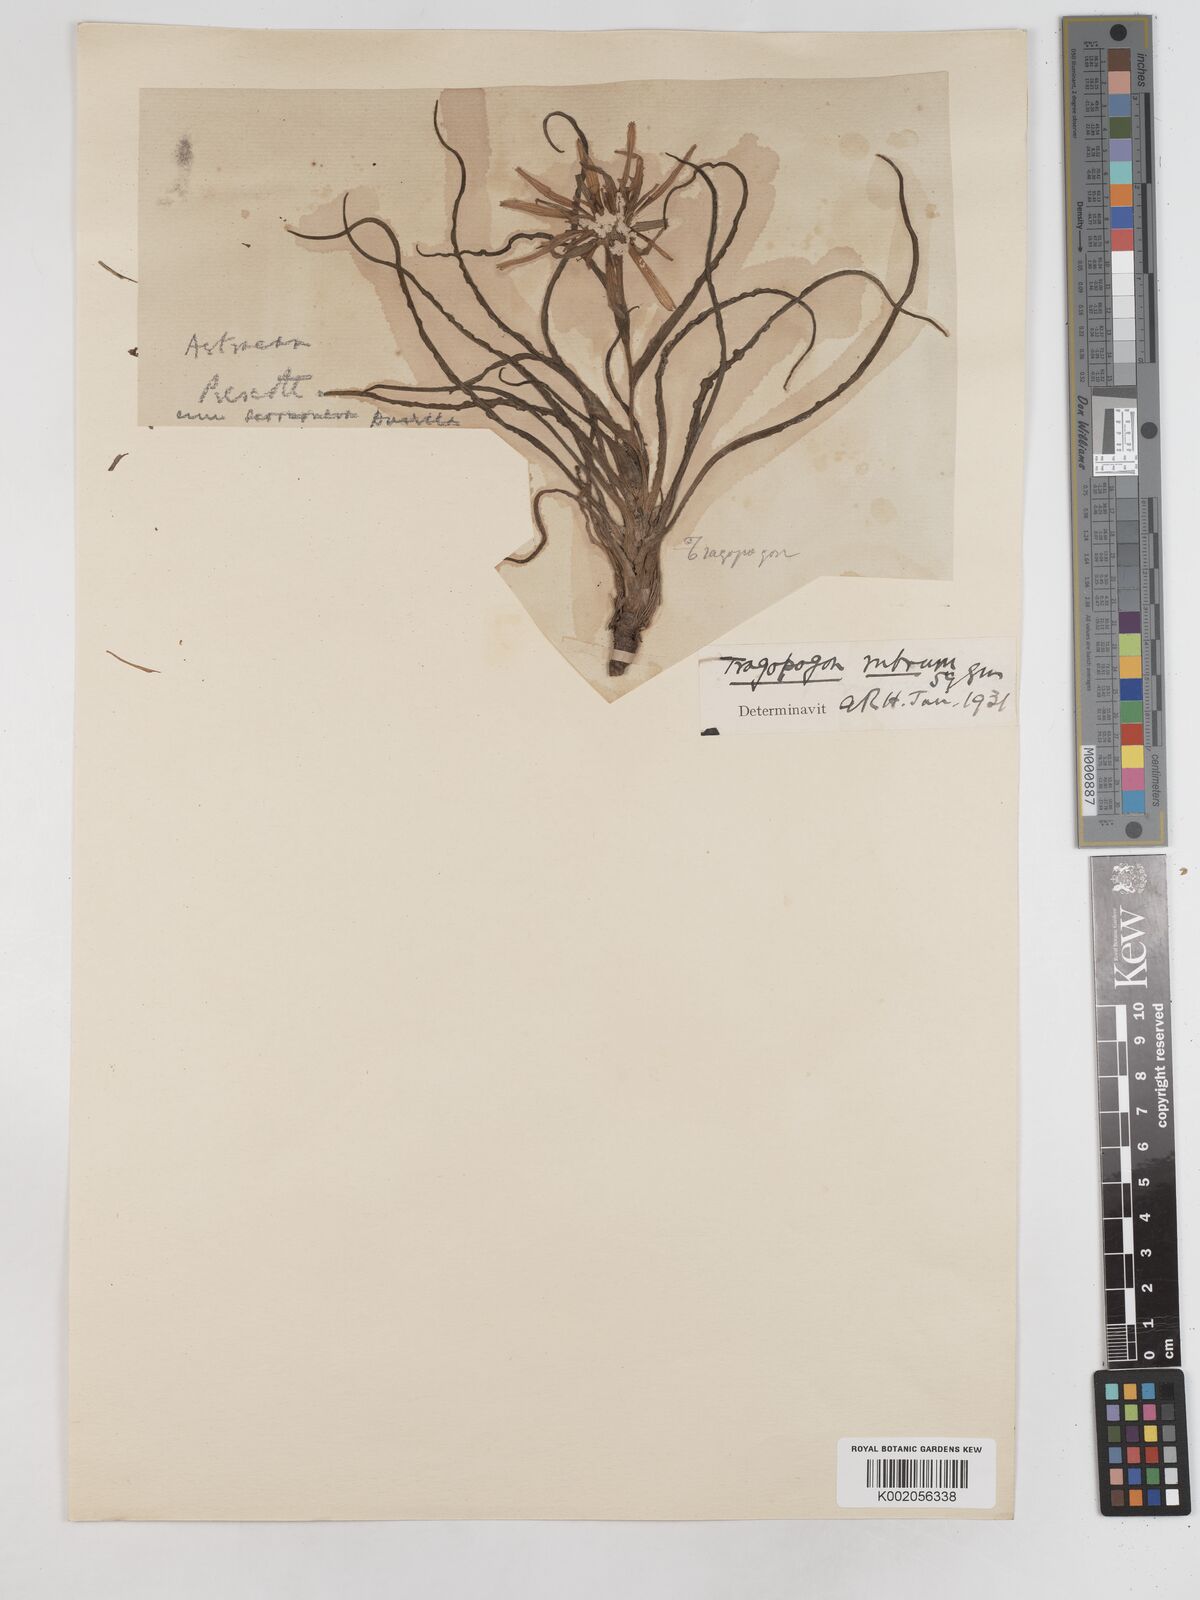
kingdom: Plantae
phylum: Tracheophyta
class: Magnoliopsida
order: Asterales
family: Asteraceae
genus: Tragopogon
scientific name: Tragopogon collinus
